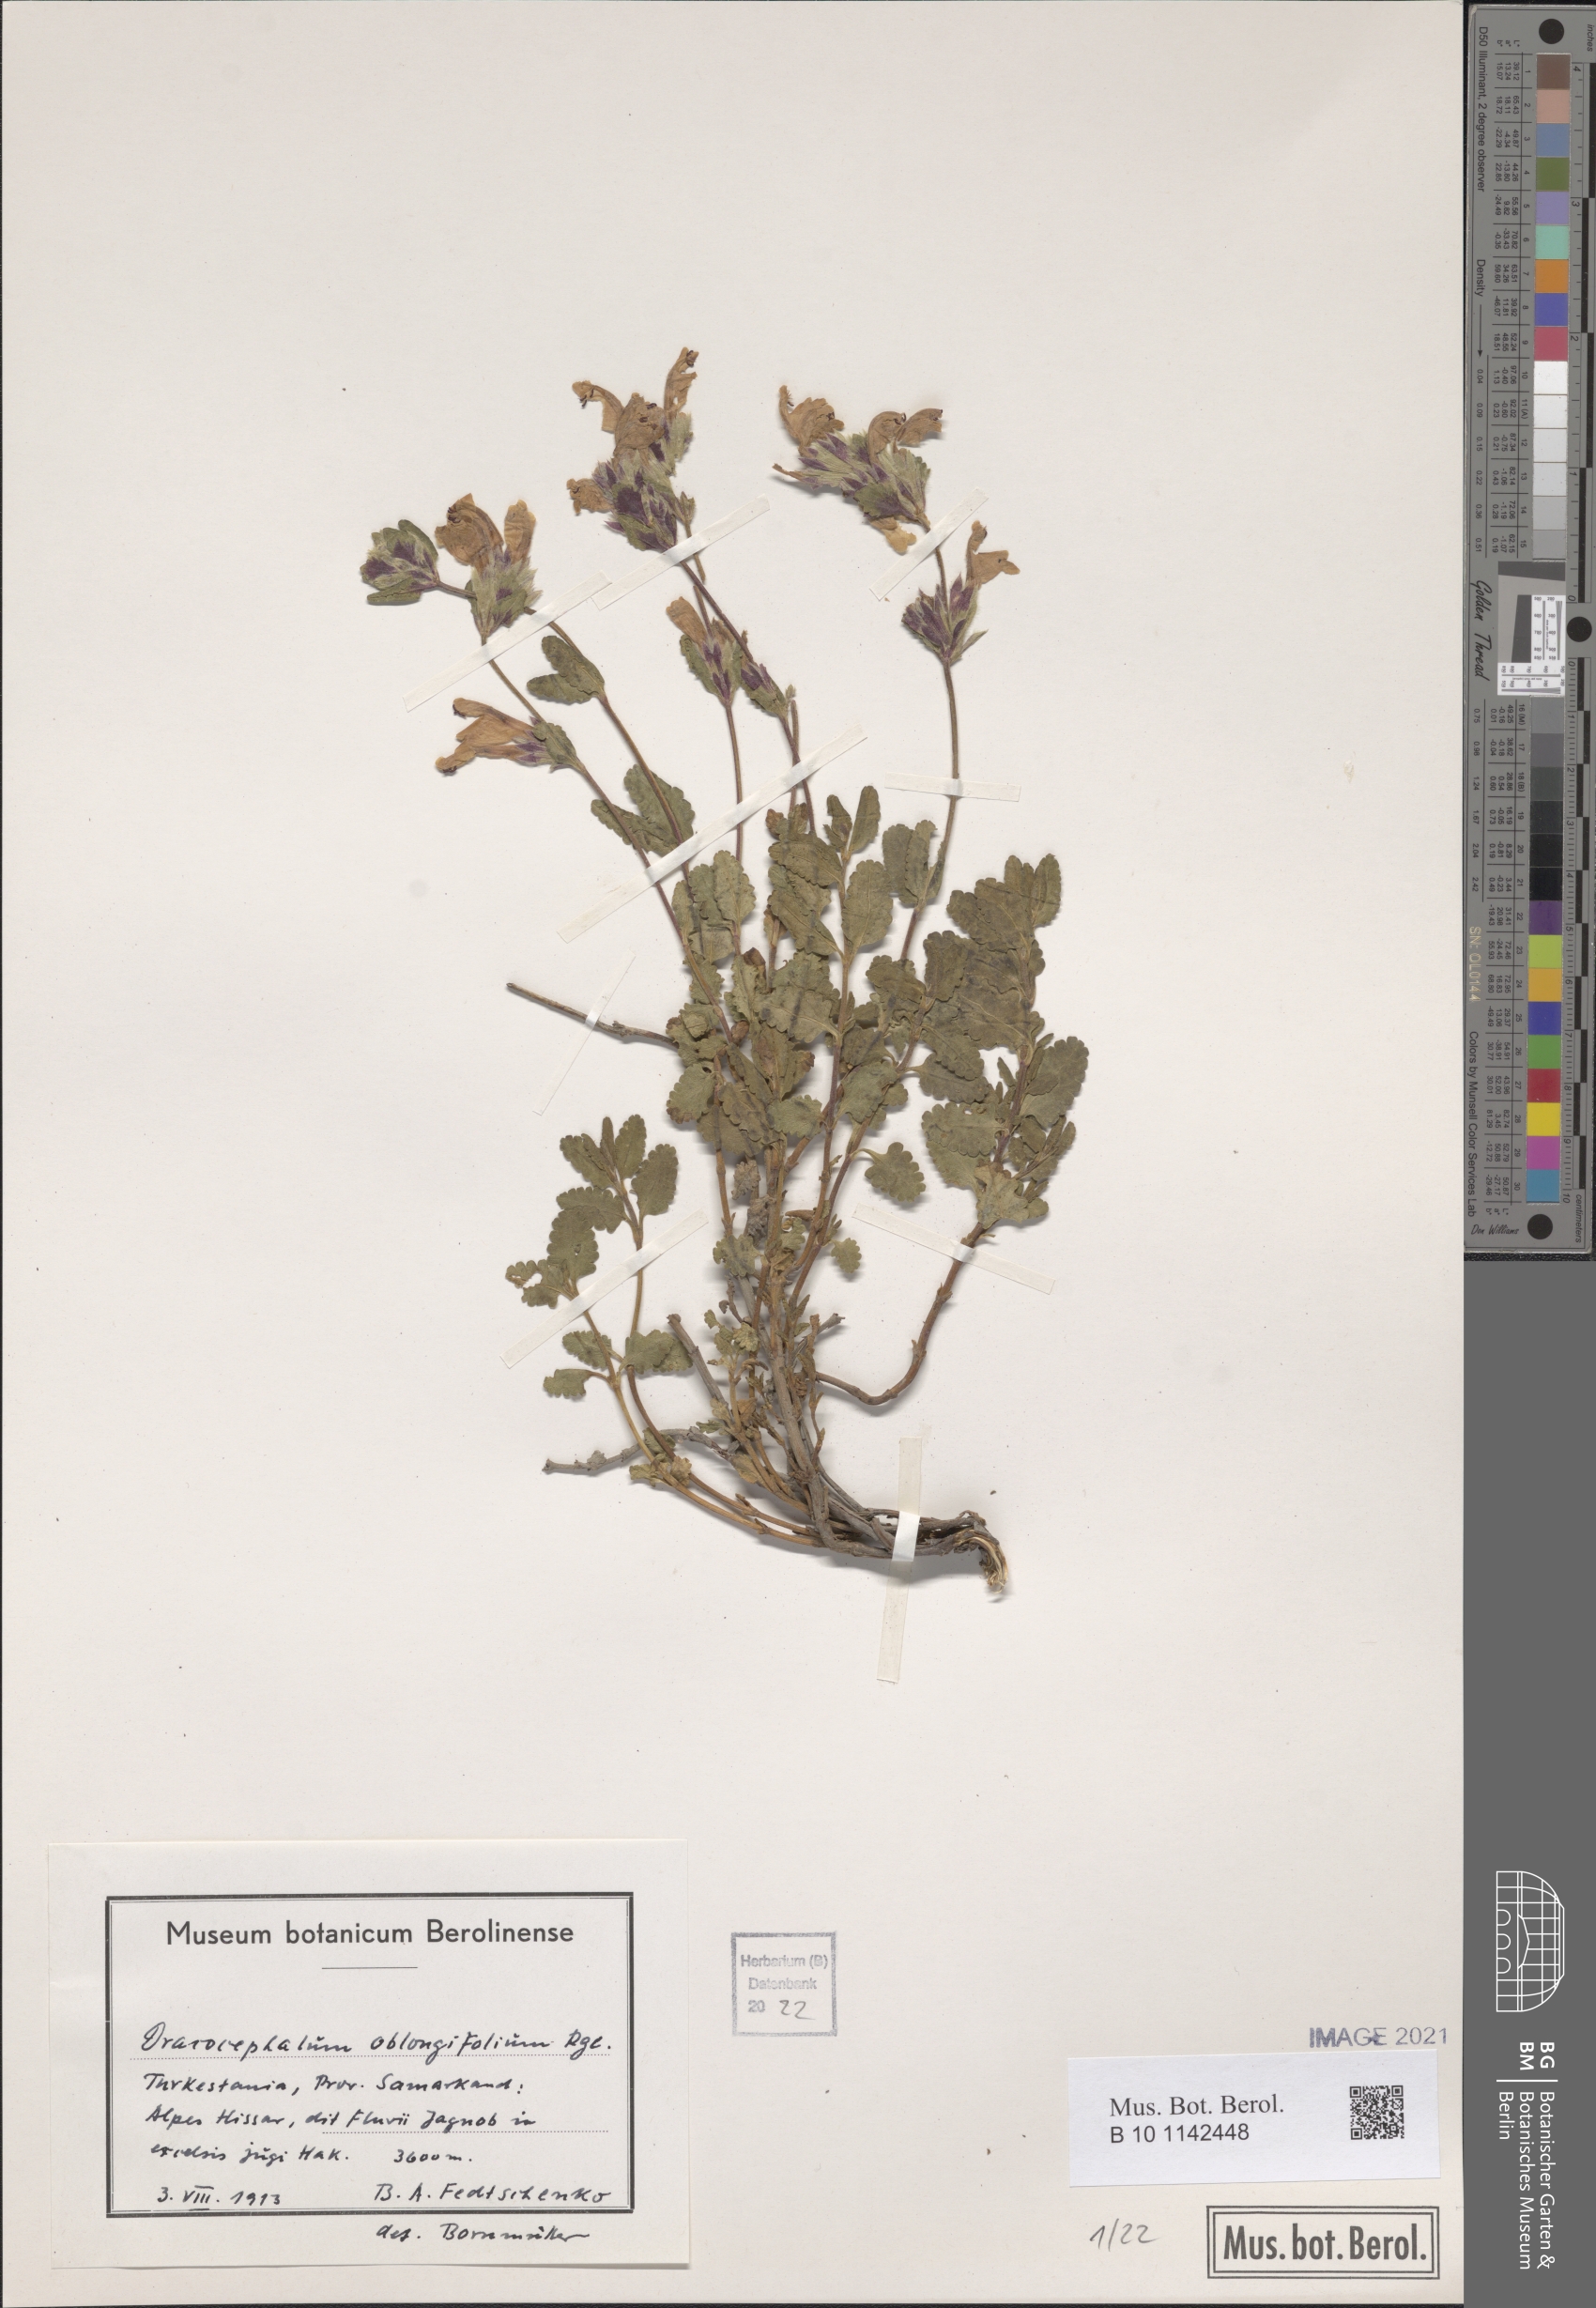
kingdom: Plantae
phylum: Tracheophyta
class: Magnoliopsida
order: Lamiales
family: Lamiaceae
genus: Dracocephalum
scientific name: Dracocephalum oblongifolium
